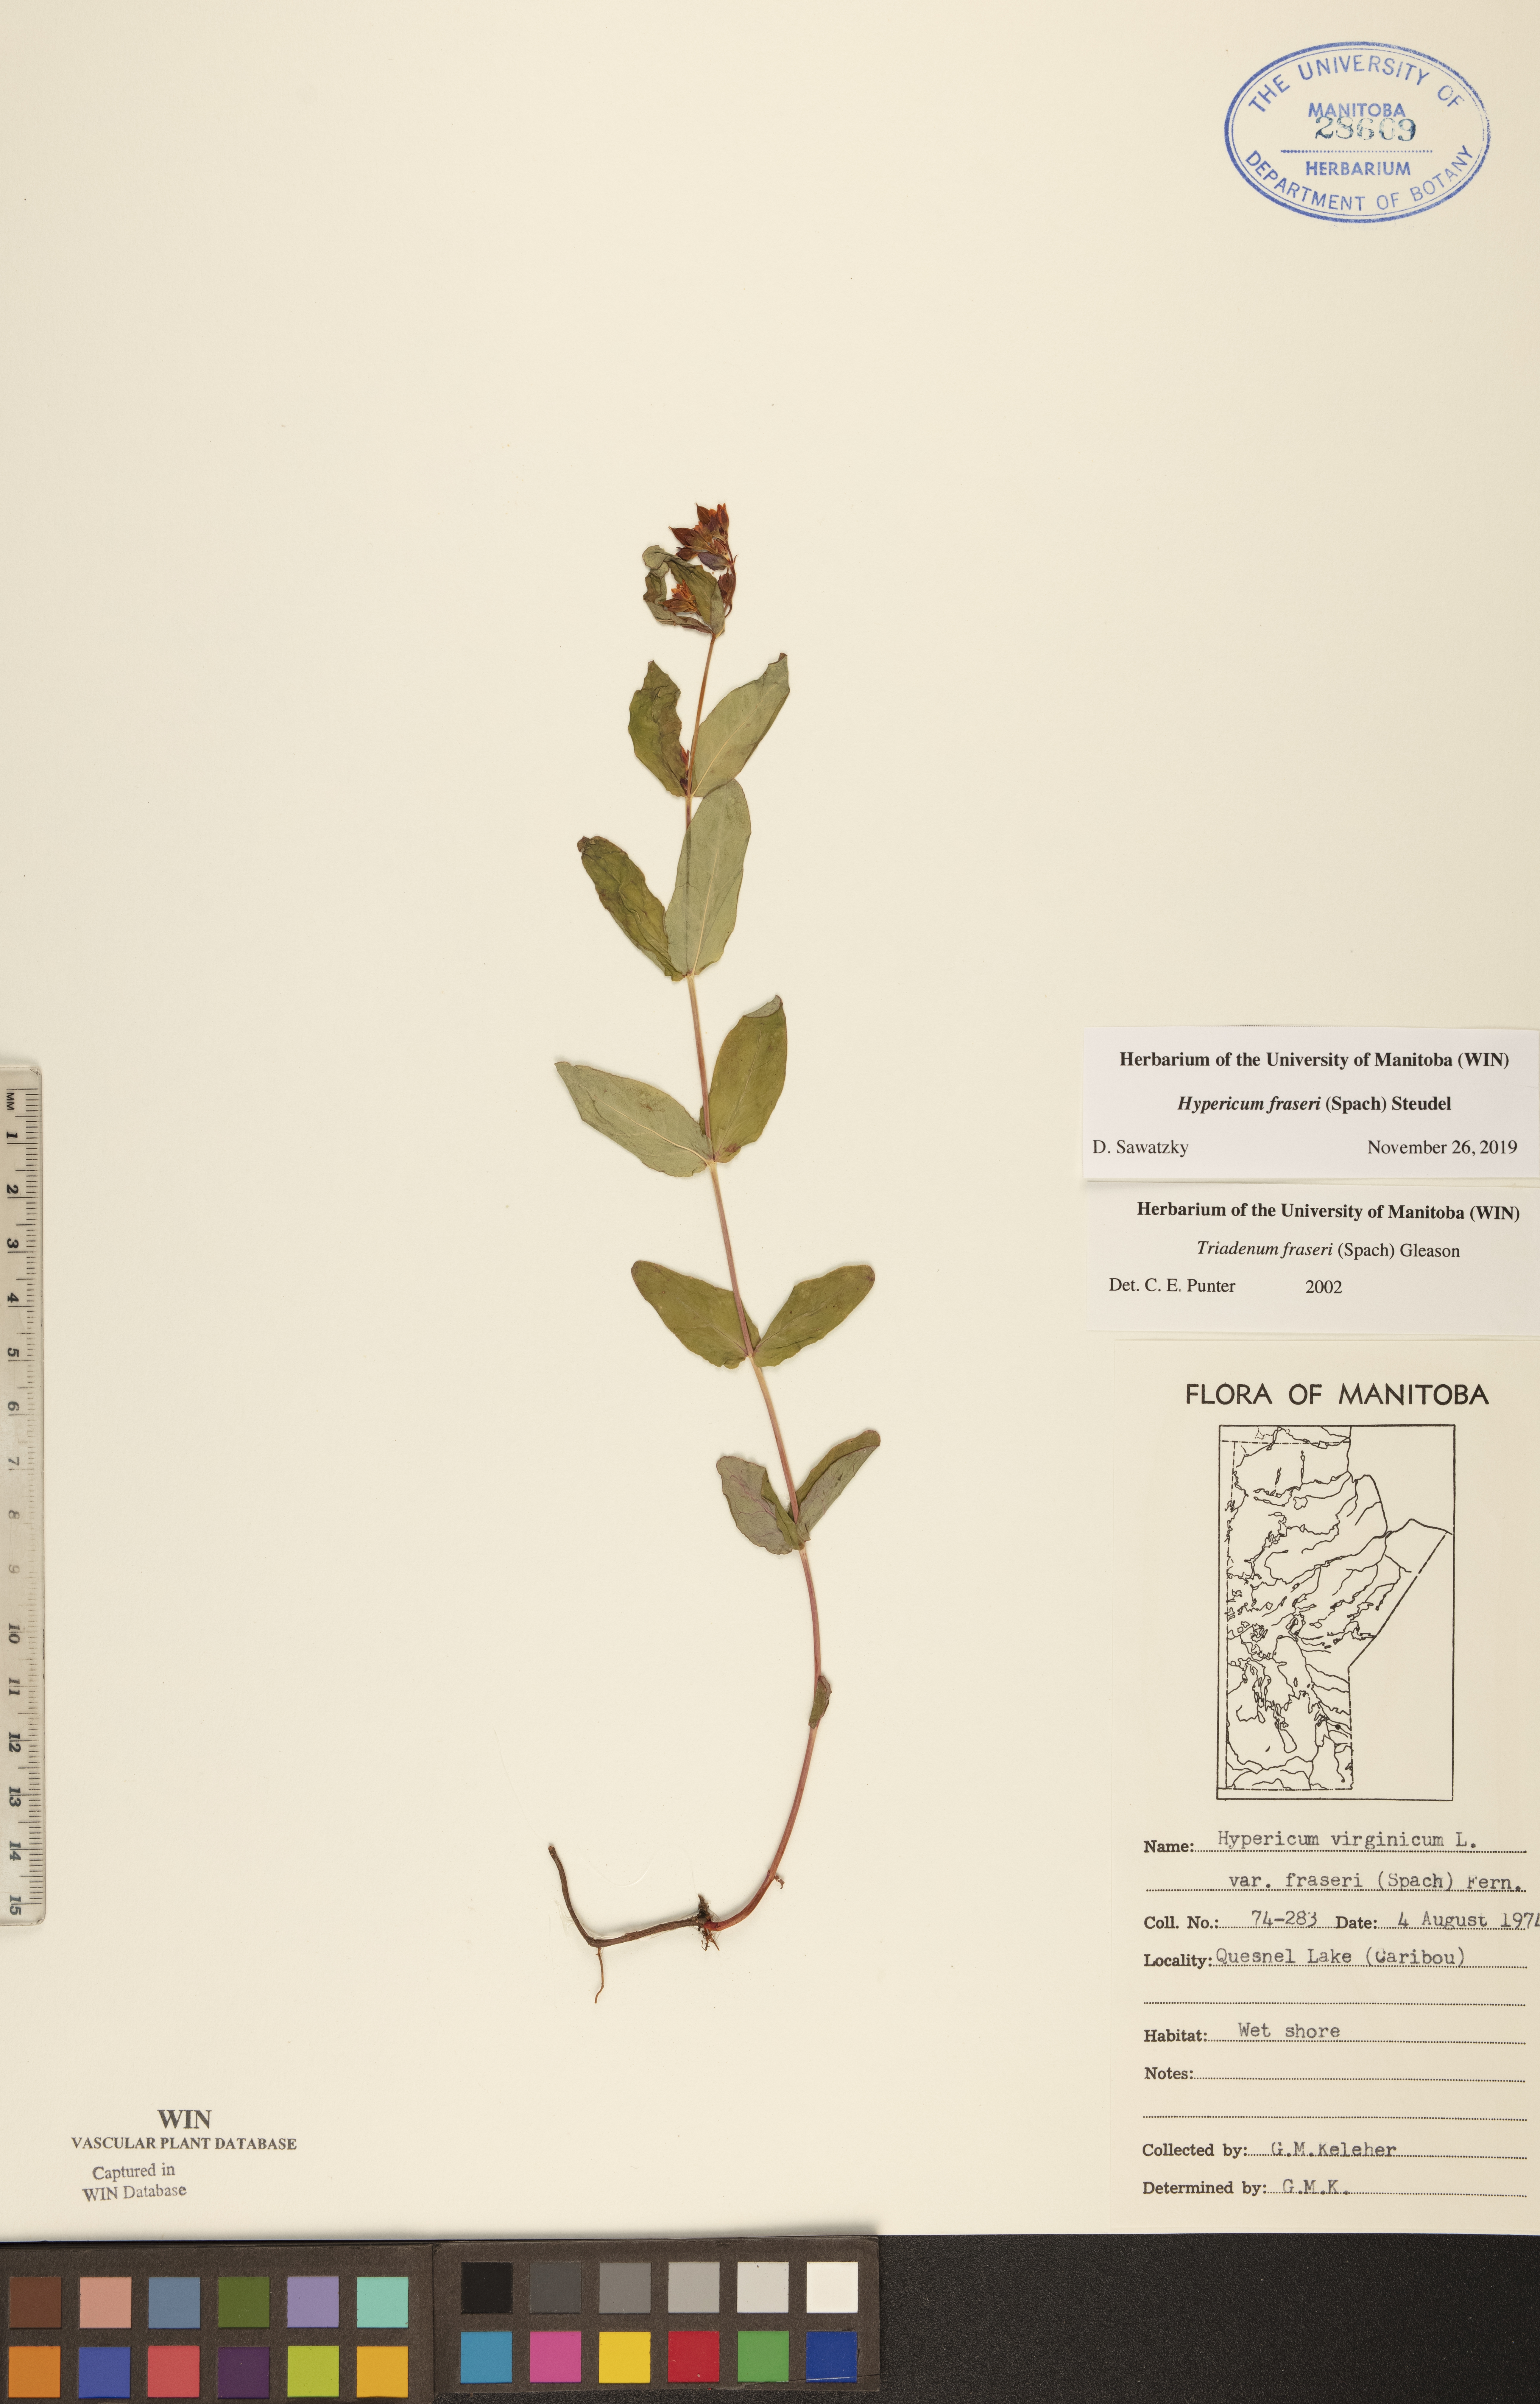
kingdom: Plantae
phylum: Tracheophyta
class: Magnoliopsida
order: Malpighiales
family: Hypericaceae
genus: Triadenum
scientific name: Triadenum fraseri
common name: Fraser's marsh st. johnswort
